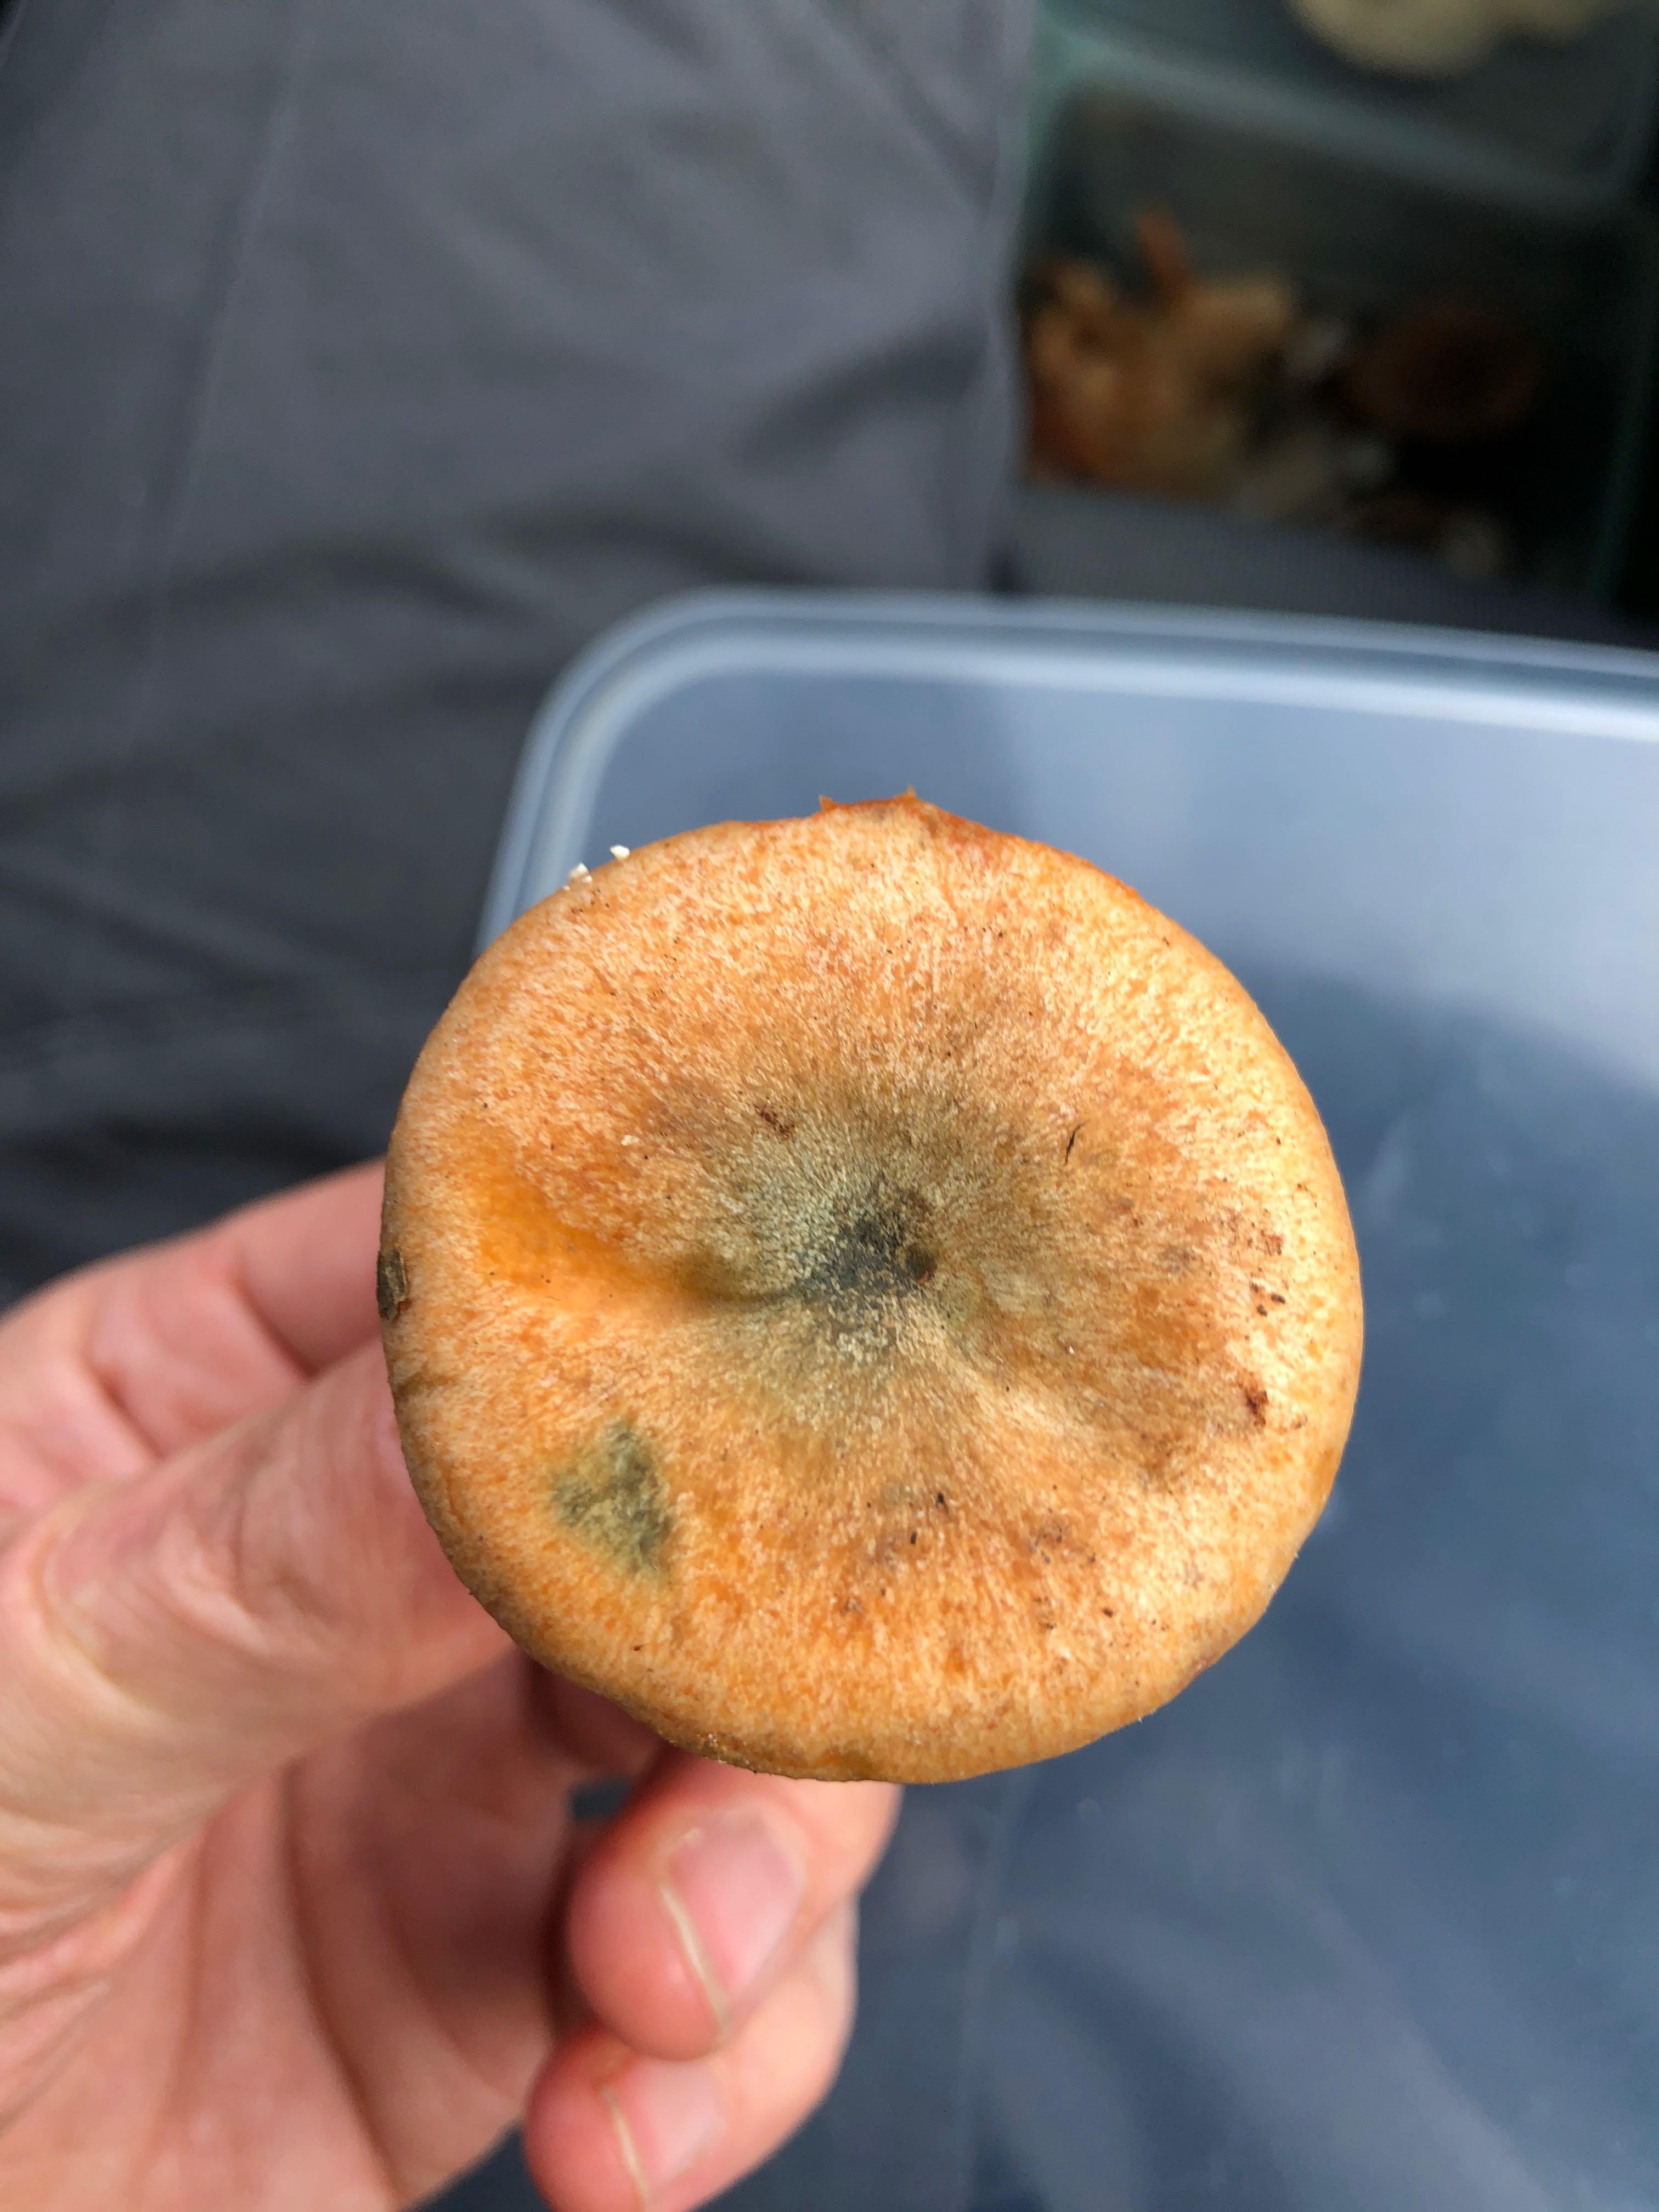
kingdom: Fungi
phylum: Basidiomycota
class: Agaricomycetes
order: Russulales
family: Russulaceae
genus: Lactarius
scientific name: Lactarius deterrimus
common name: gran-mælkehat
